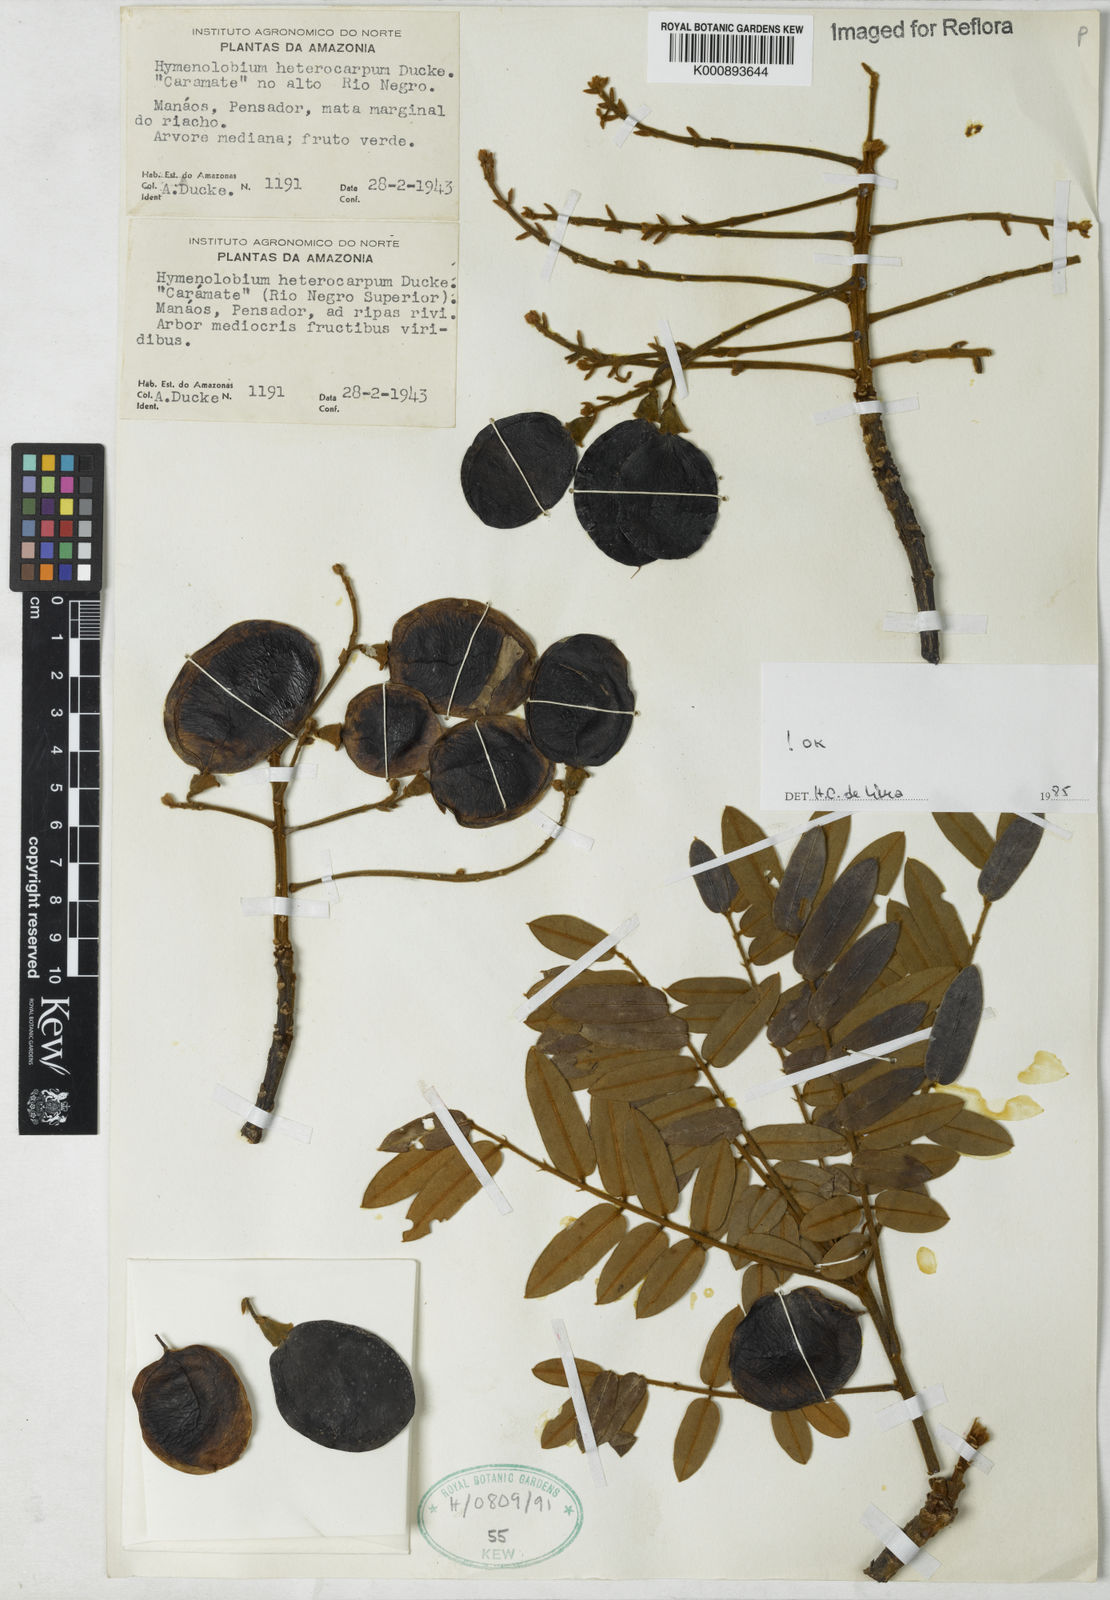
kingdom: Plantae
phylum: Tracheophyta
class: Magnoliopsida
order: Fabales
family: Fabaceae
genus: Hymenolobium
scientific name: Hymenolobium heterocarpum
